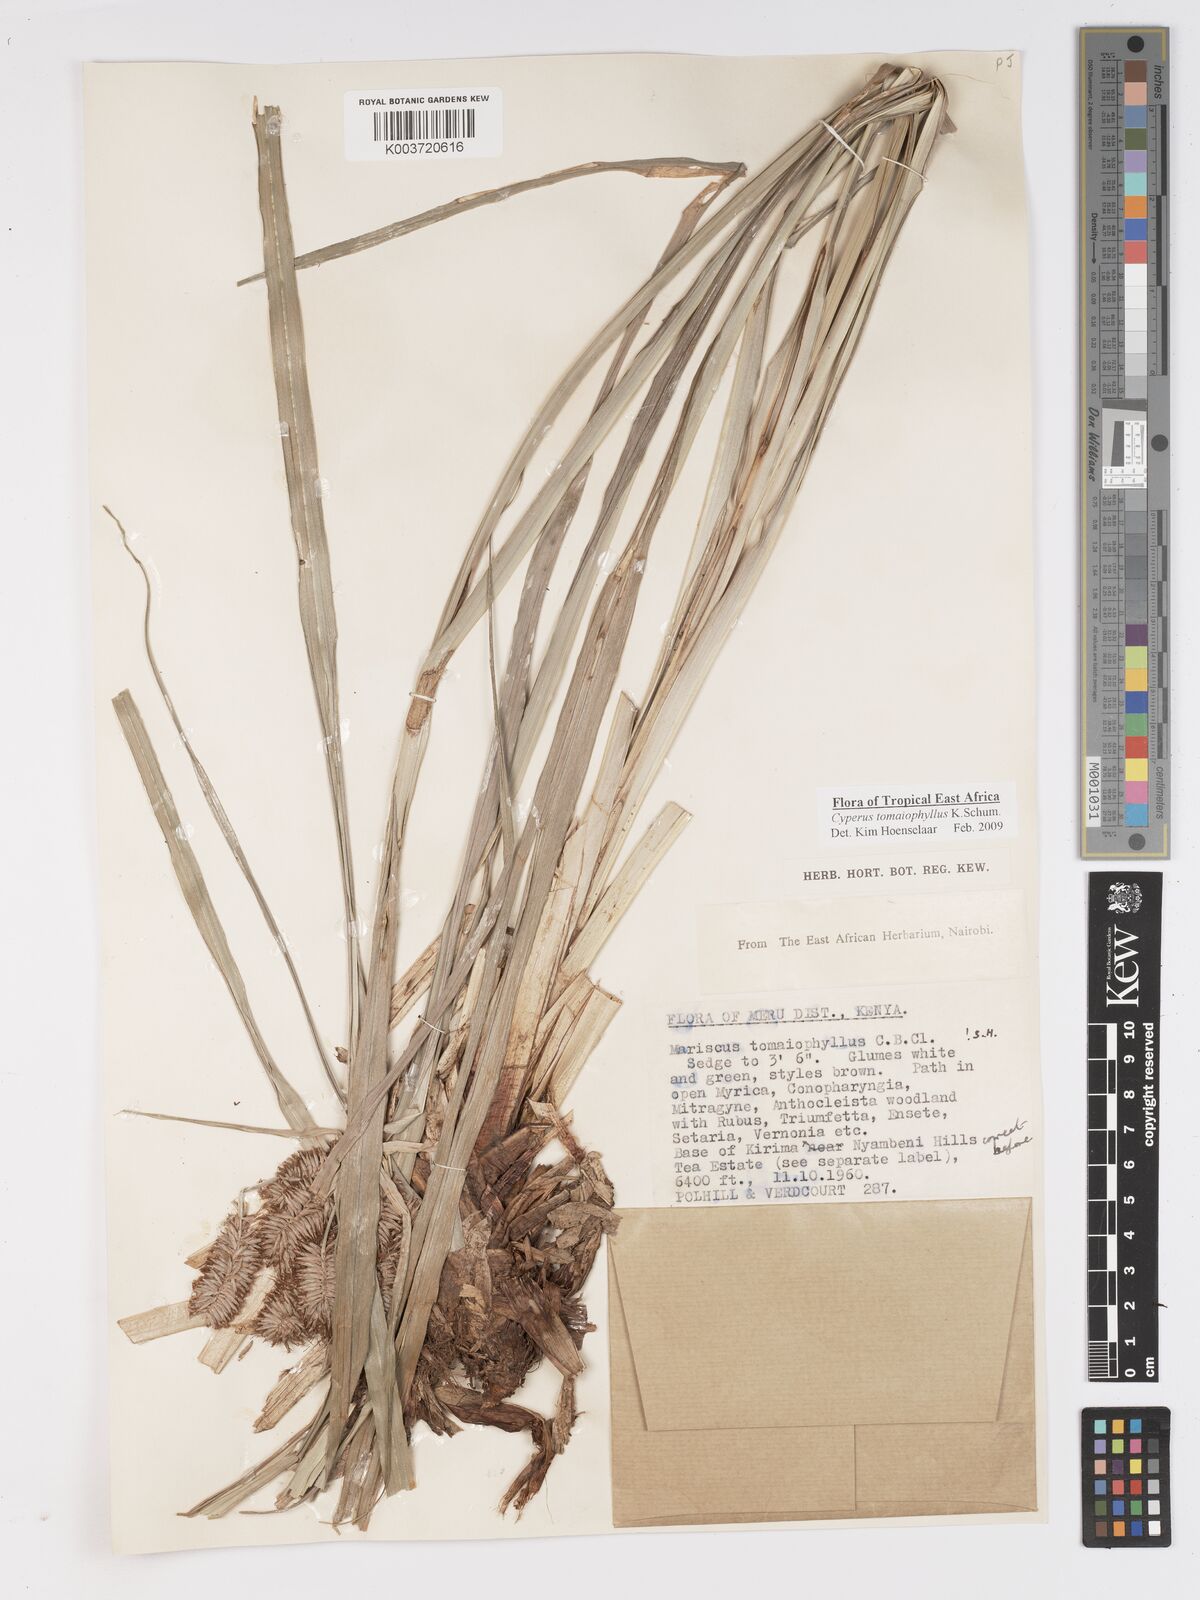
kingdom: Plantae
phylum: Tracheophyta
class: Liliopsida
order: Poales
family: Cyperaceae
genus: Cyperus
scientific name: Cyperus tomaiophyllus
